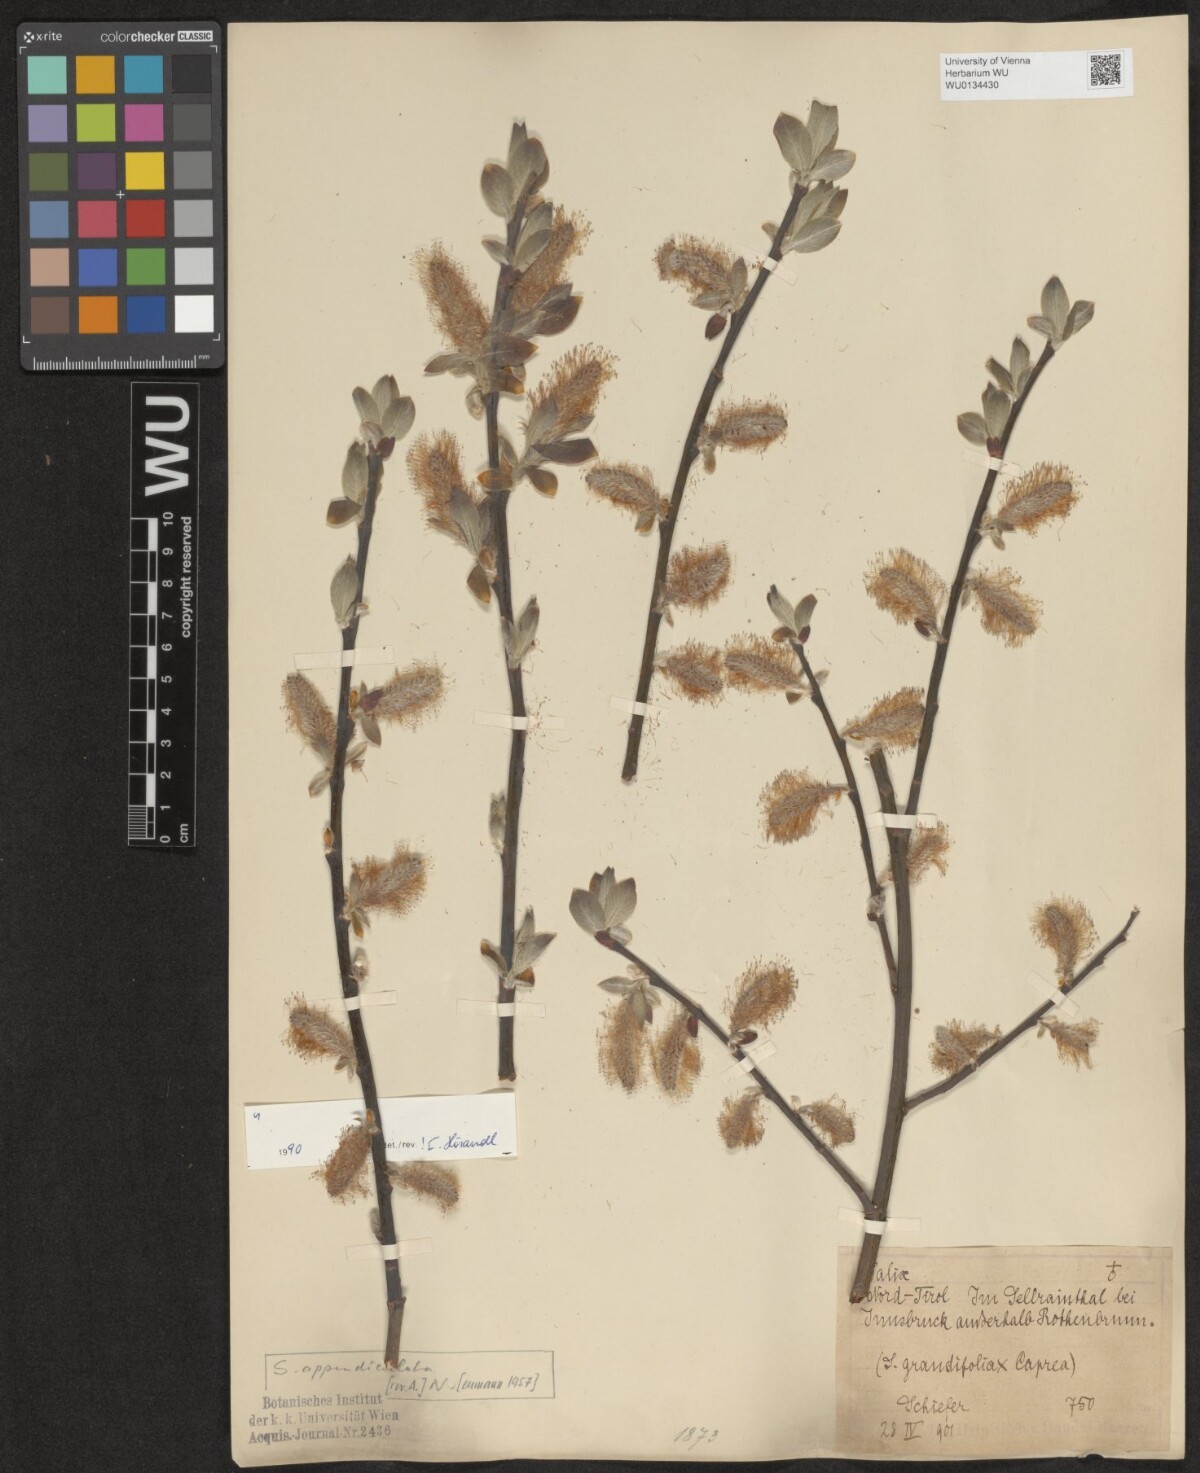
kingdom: Plantae
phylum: Tracheophyta
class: Magnoliopsida
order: Malpighiales
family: Salicaceae
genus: Salix
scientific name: Salix appendiculata
